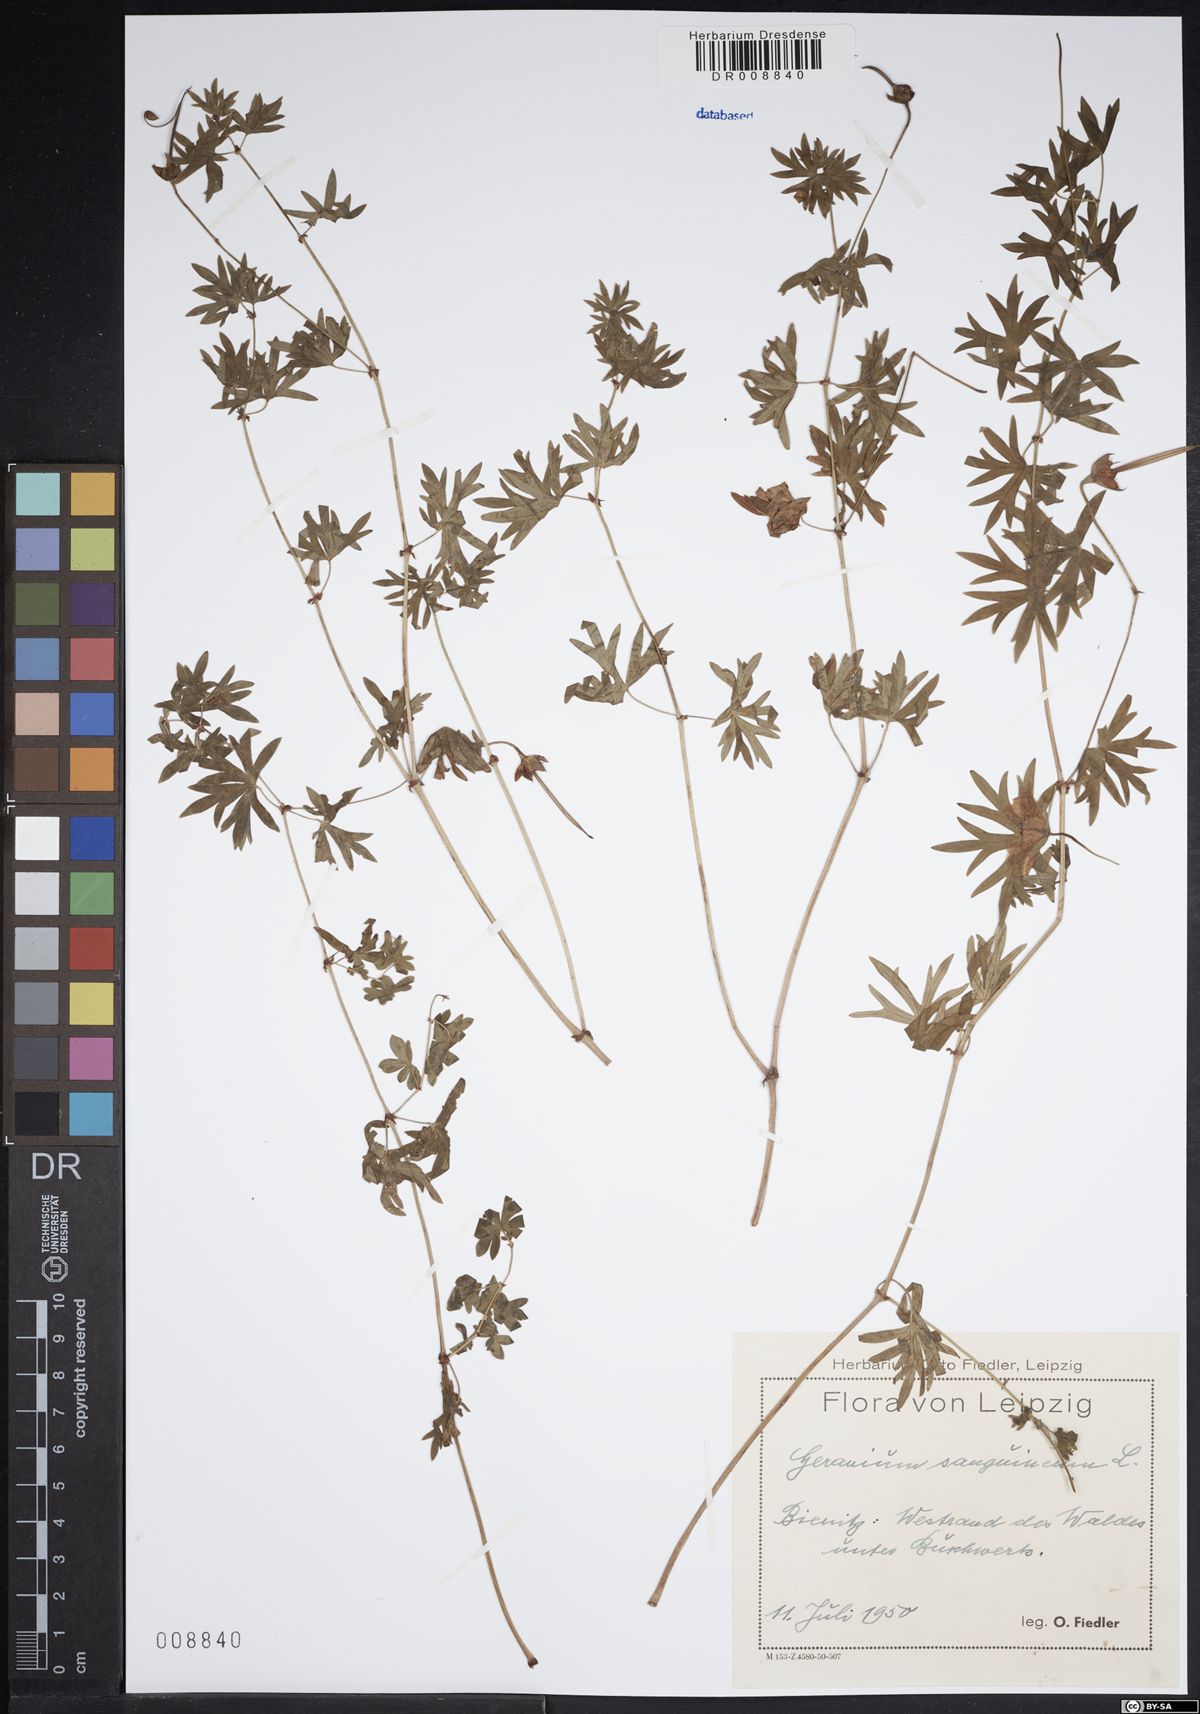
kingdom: Plantae
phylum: Tracheophyta
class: Magnoliopsida
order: Geraniales
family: Geraniaceae
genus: Geranium
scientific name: Geranium sanguineum
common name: Bloody crane's-bill
